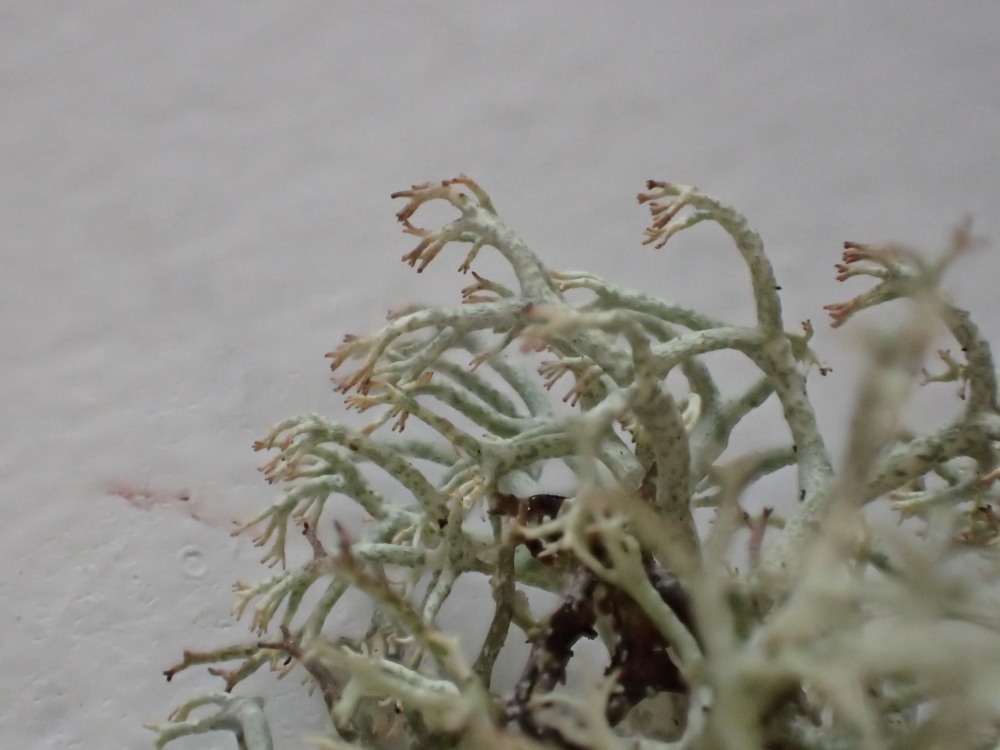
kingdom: Fungi
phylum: Ascomycota
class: Lecanoromycetes
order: Lecanorales
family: Cladoniaceae
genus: Cladonia
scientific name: Cladonia ciliata
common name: spinkel rensdyrlav
